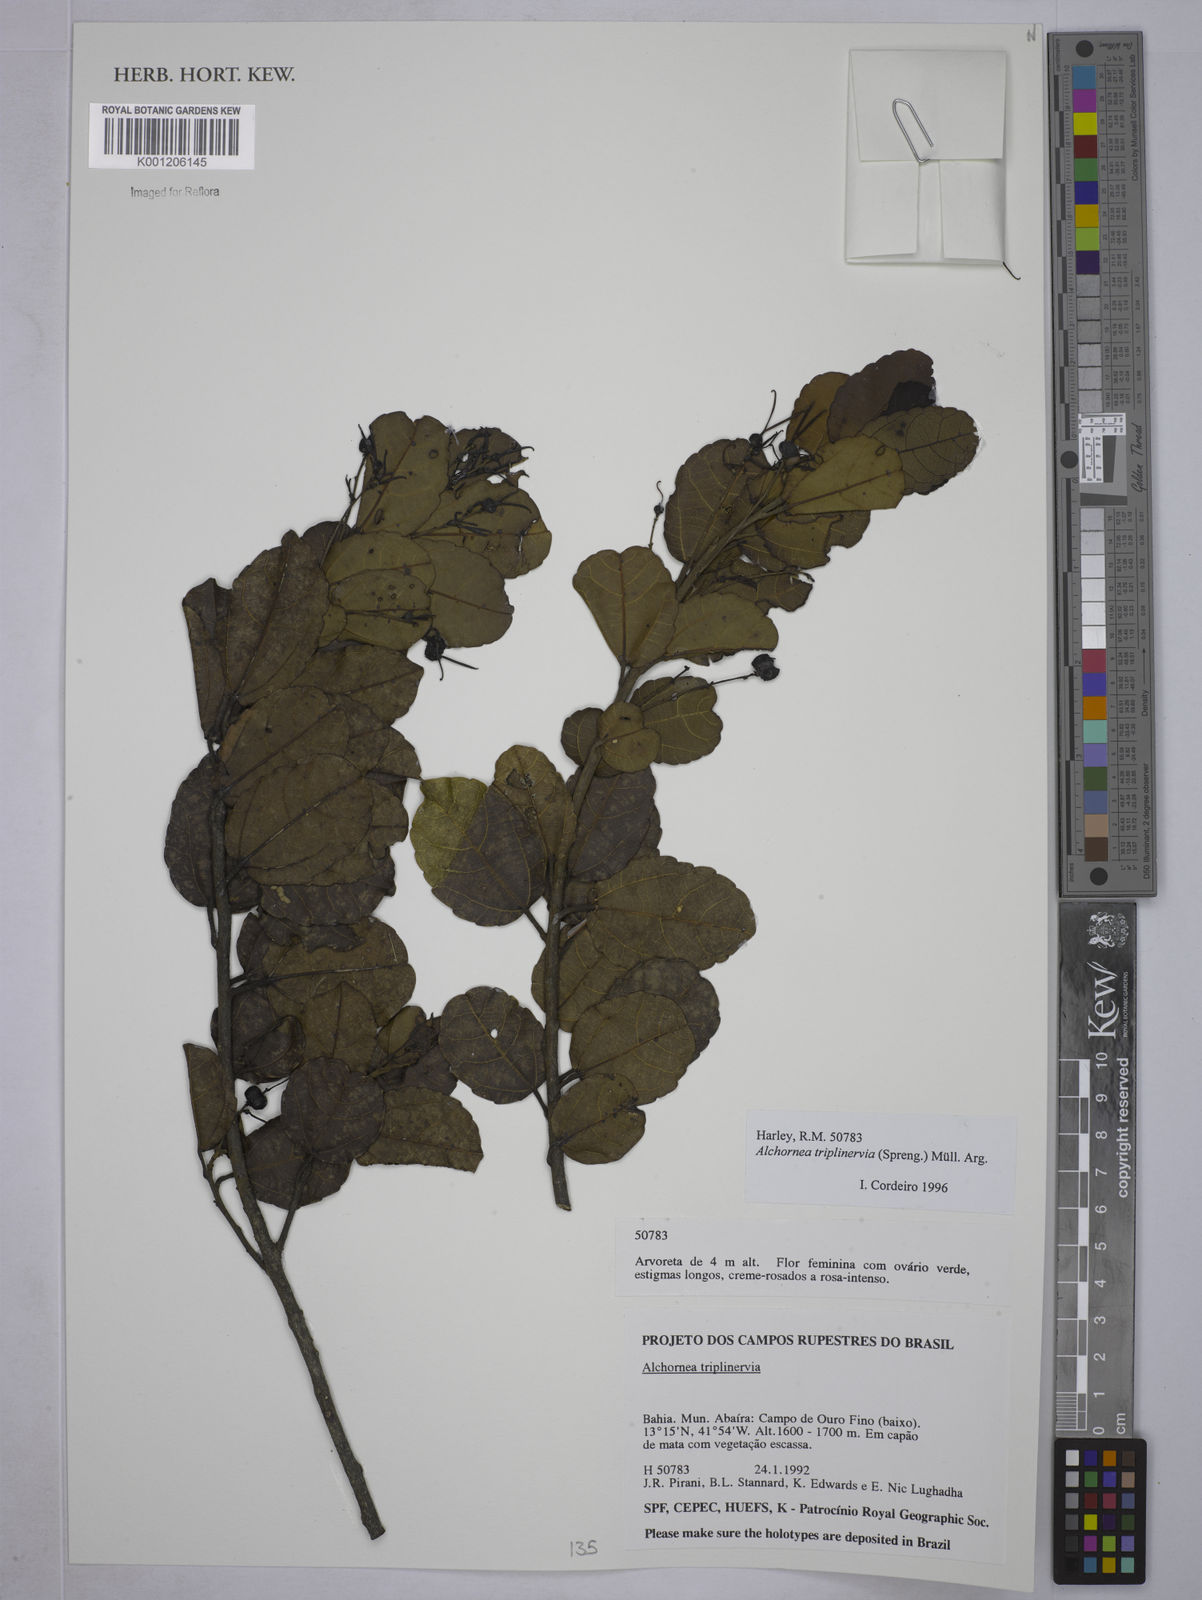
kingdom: Plantae
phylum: Tracheophyta
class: Magnoliopsida
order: Malpighiales
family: Euphorbiaceae
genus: Alchornea
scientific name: Alchornea
